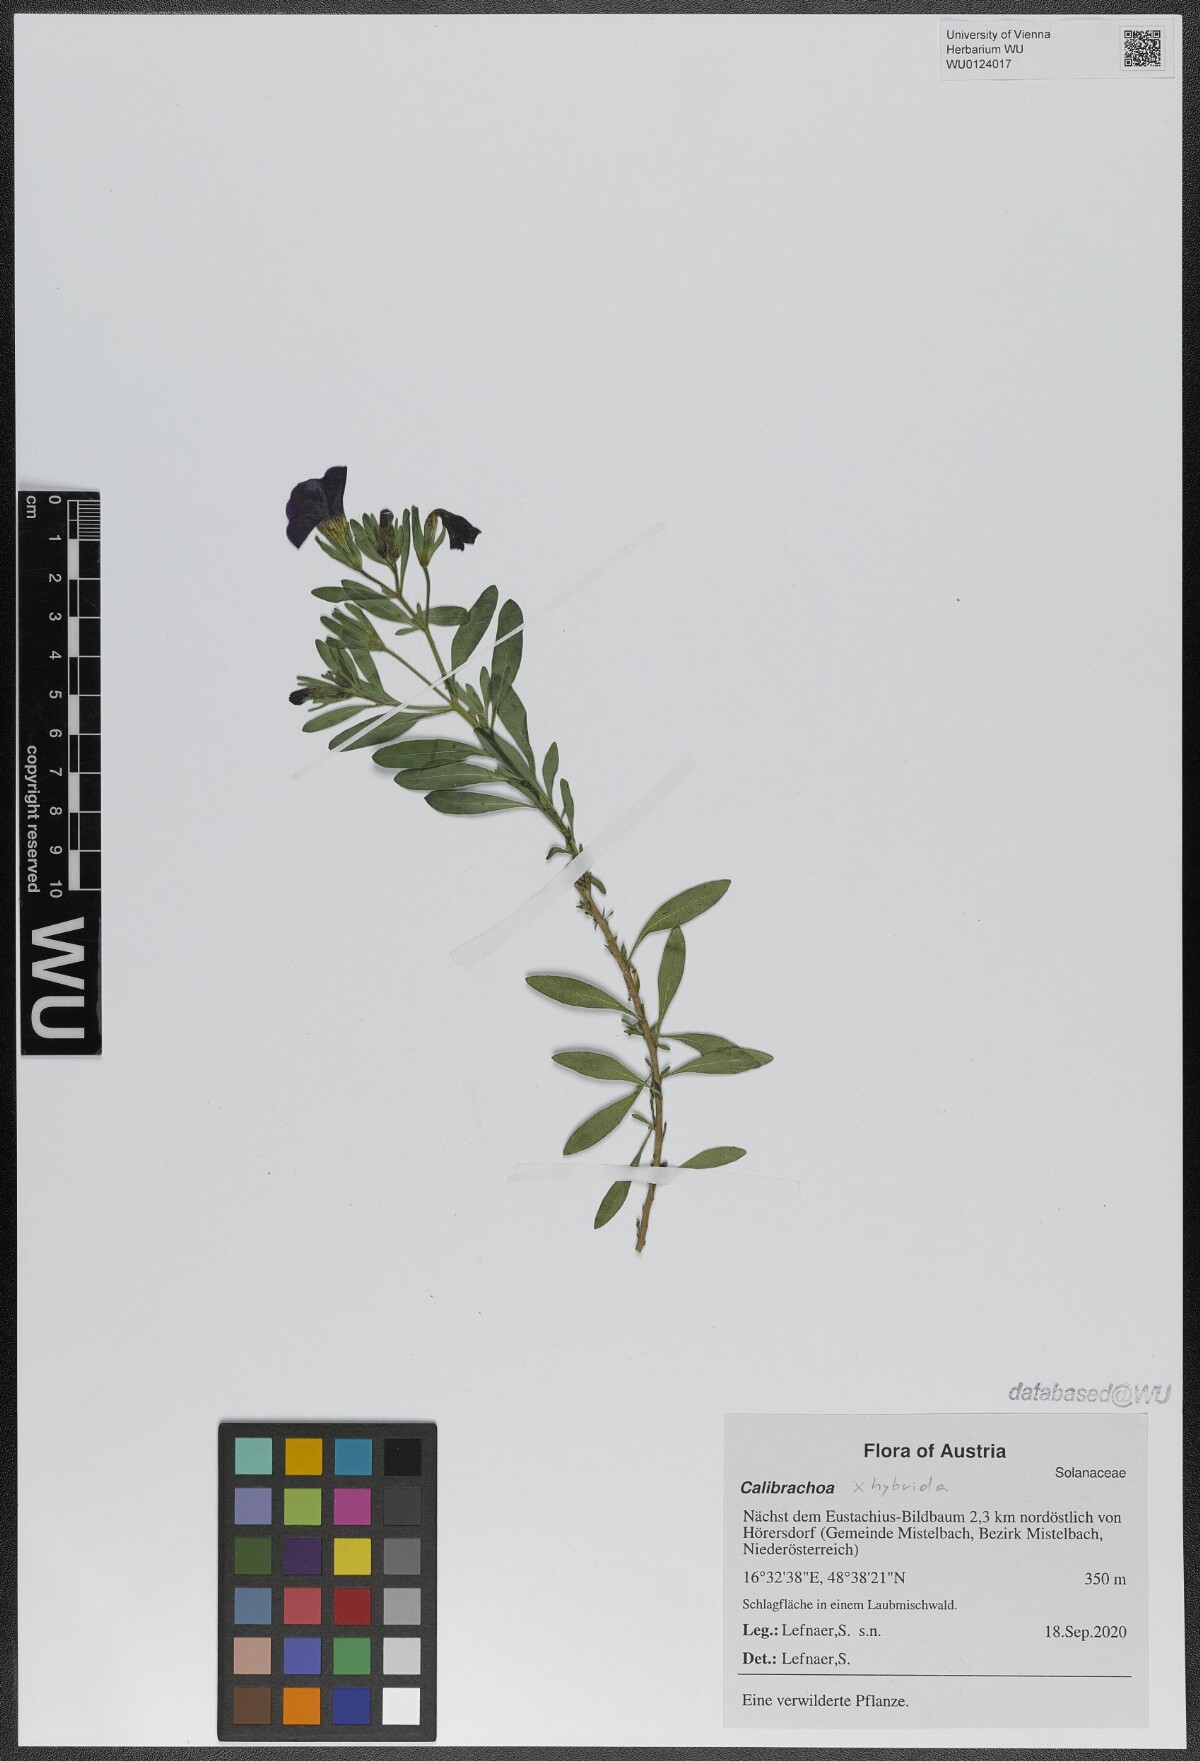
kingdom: Plantae
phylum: Tracheophyta
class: Magnoliopsida
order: Solanales
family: Solanaceae
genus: Calibrachoa
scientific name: Calibrachoa
